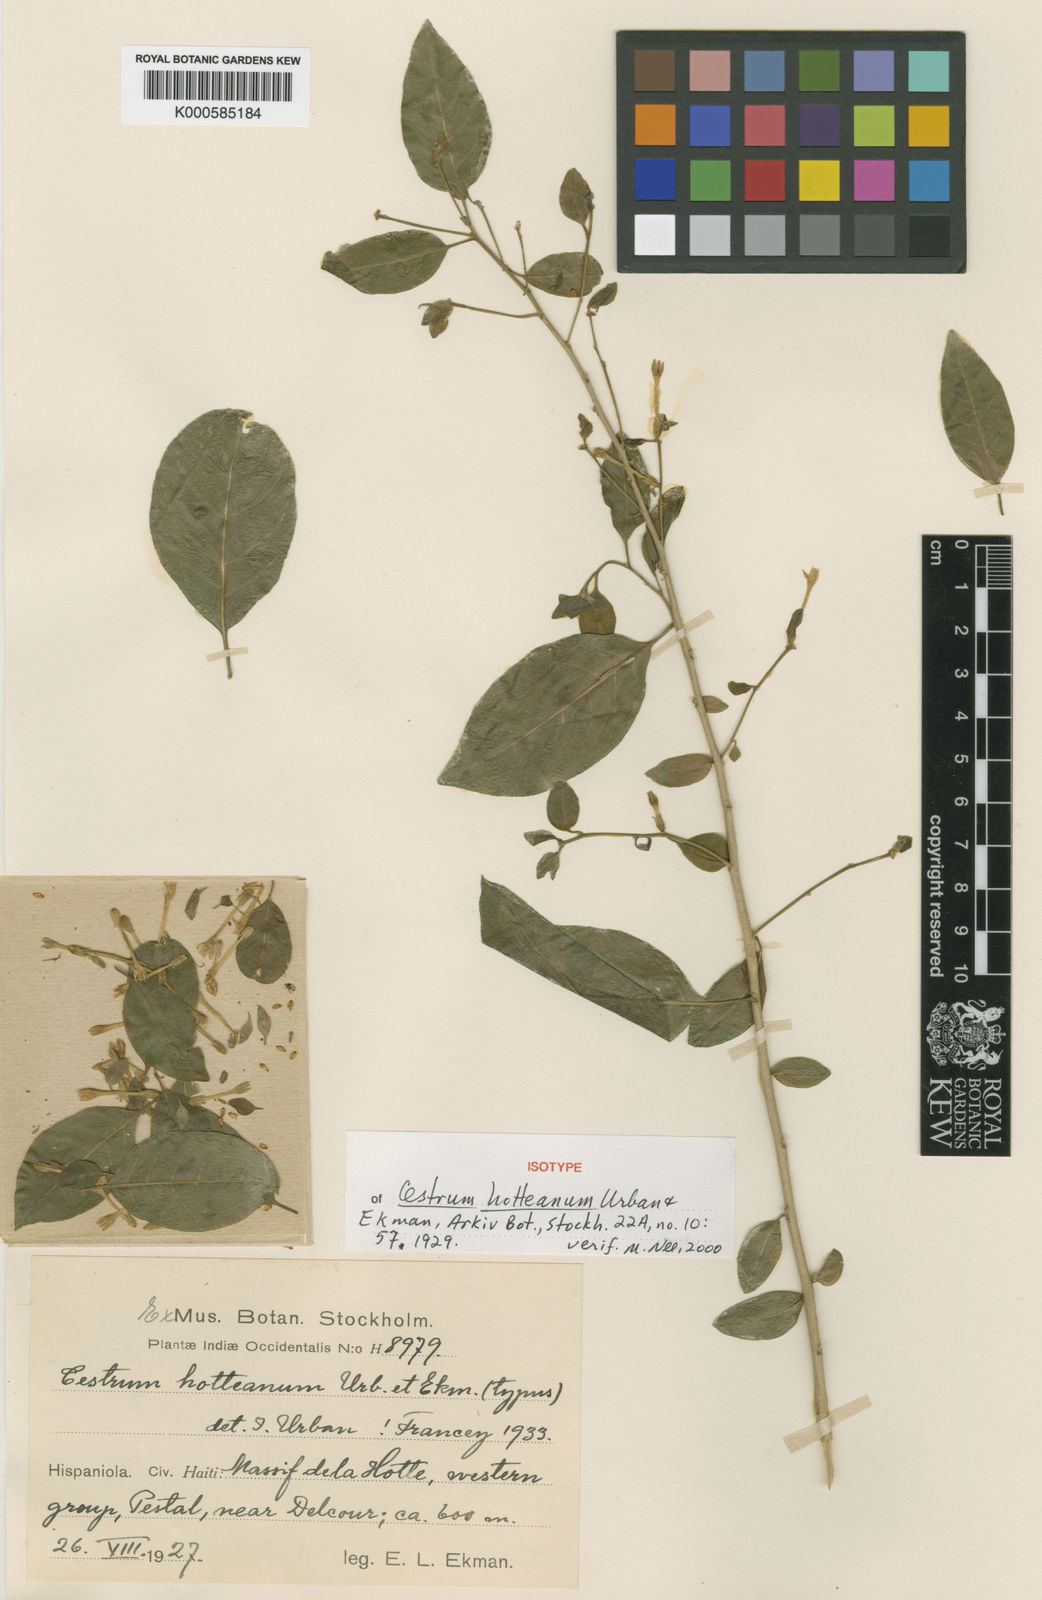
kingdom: Plantae
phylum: Tracheophyta
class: Magnoliopsida
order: Solanales
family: Solanaceae
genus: Cestrum
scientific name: Cestrum hotteanum
